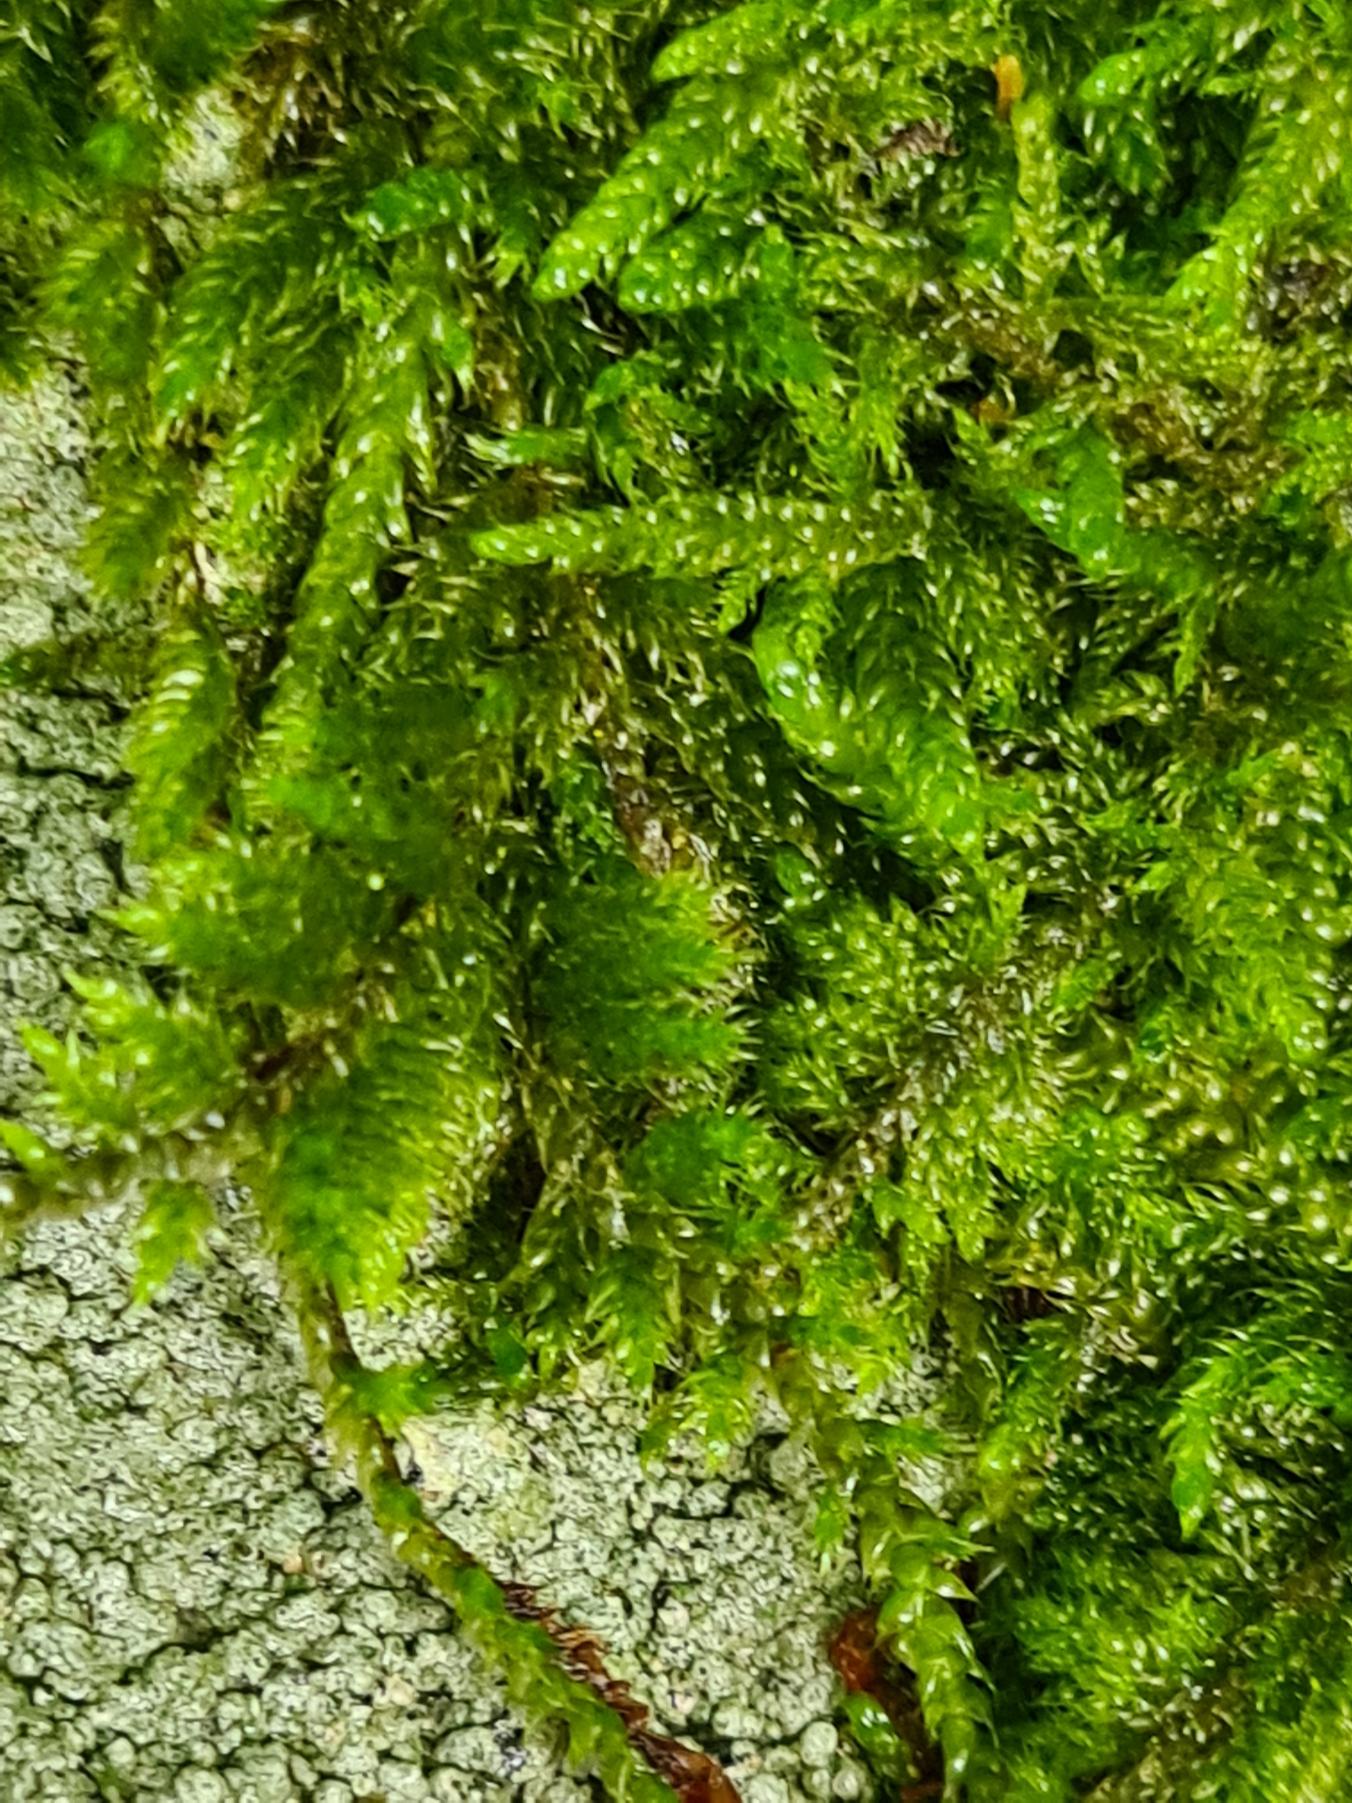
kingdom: Plantae
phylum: Bryophyta
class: Bryopsida
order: Hypnales
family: Hypnaceae
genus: Hypnum
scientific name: Hypnum cupressiforme
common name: Almindelig cypresmos
